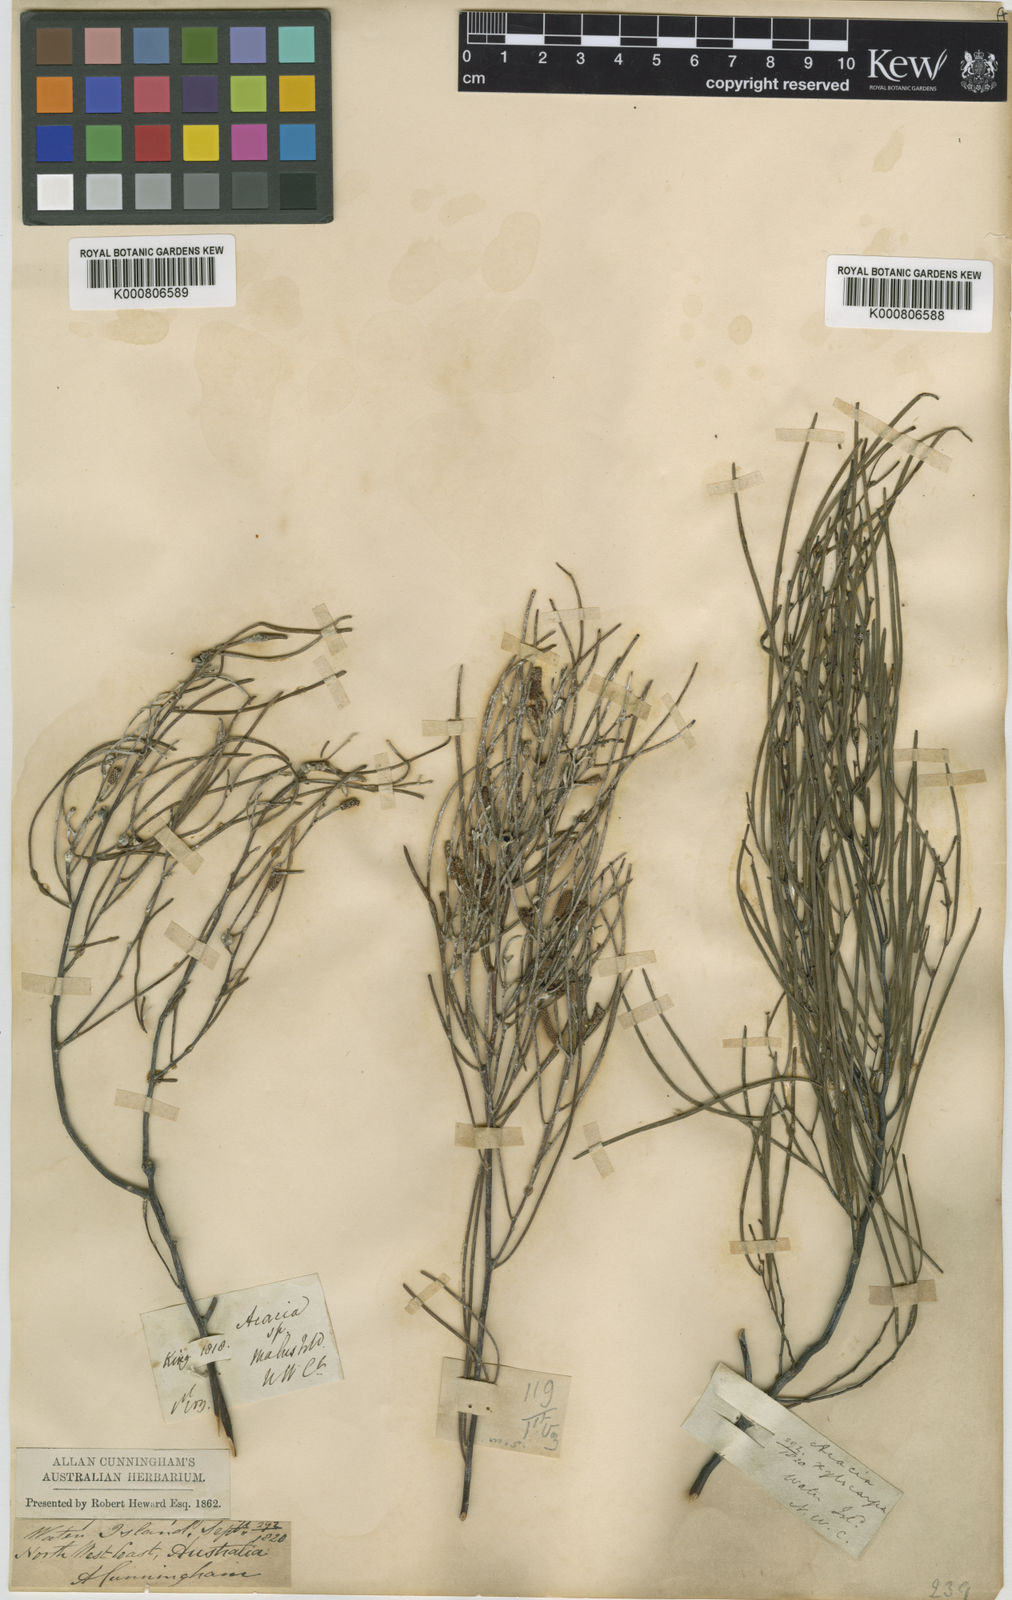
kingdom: Plantae
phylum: Tracheophyta
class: Magnoliopsida
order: Fabales
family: Fabaceae
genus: Acacia
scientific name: Acacia
